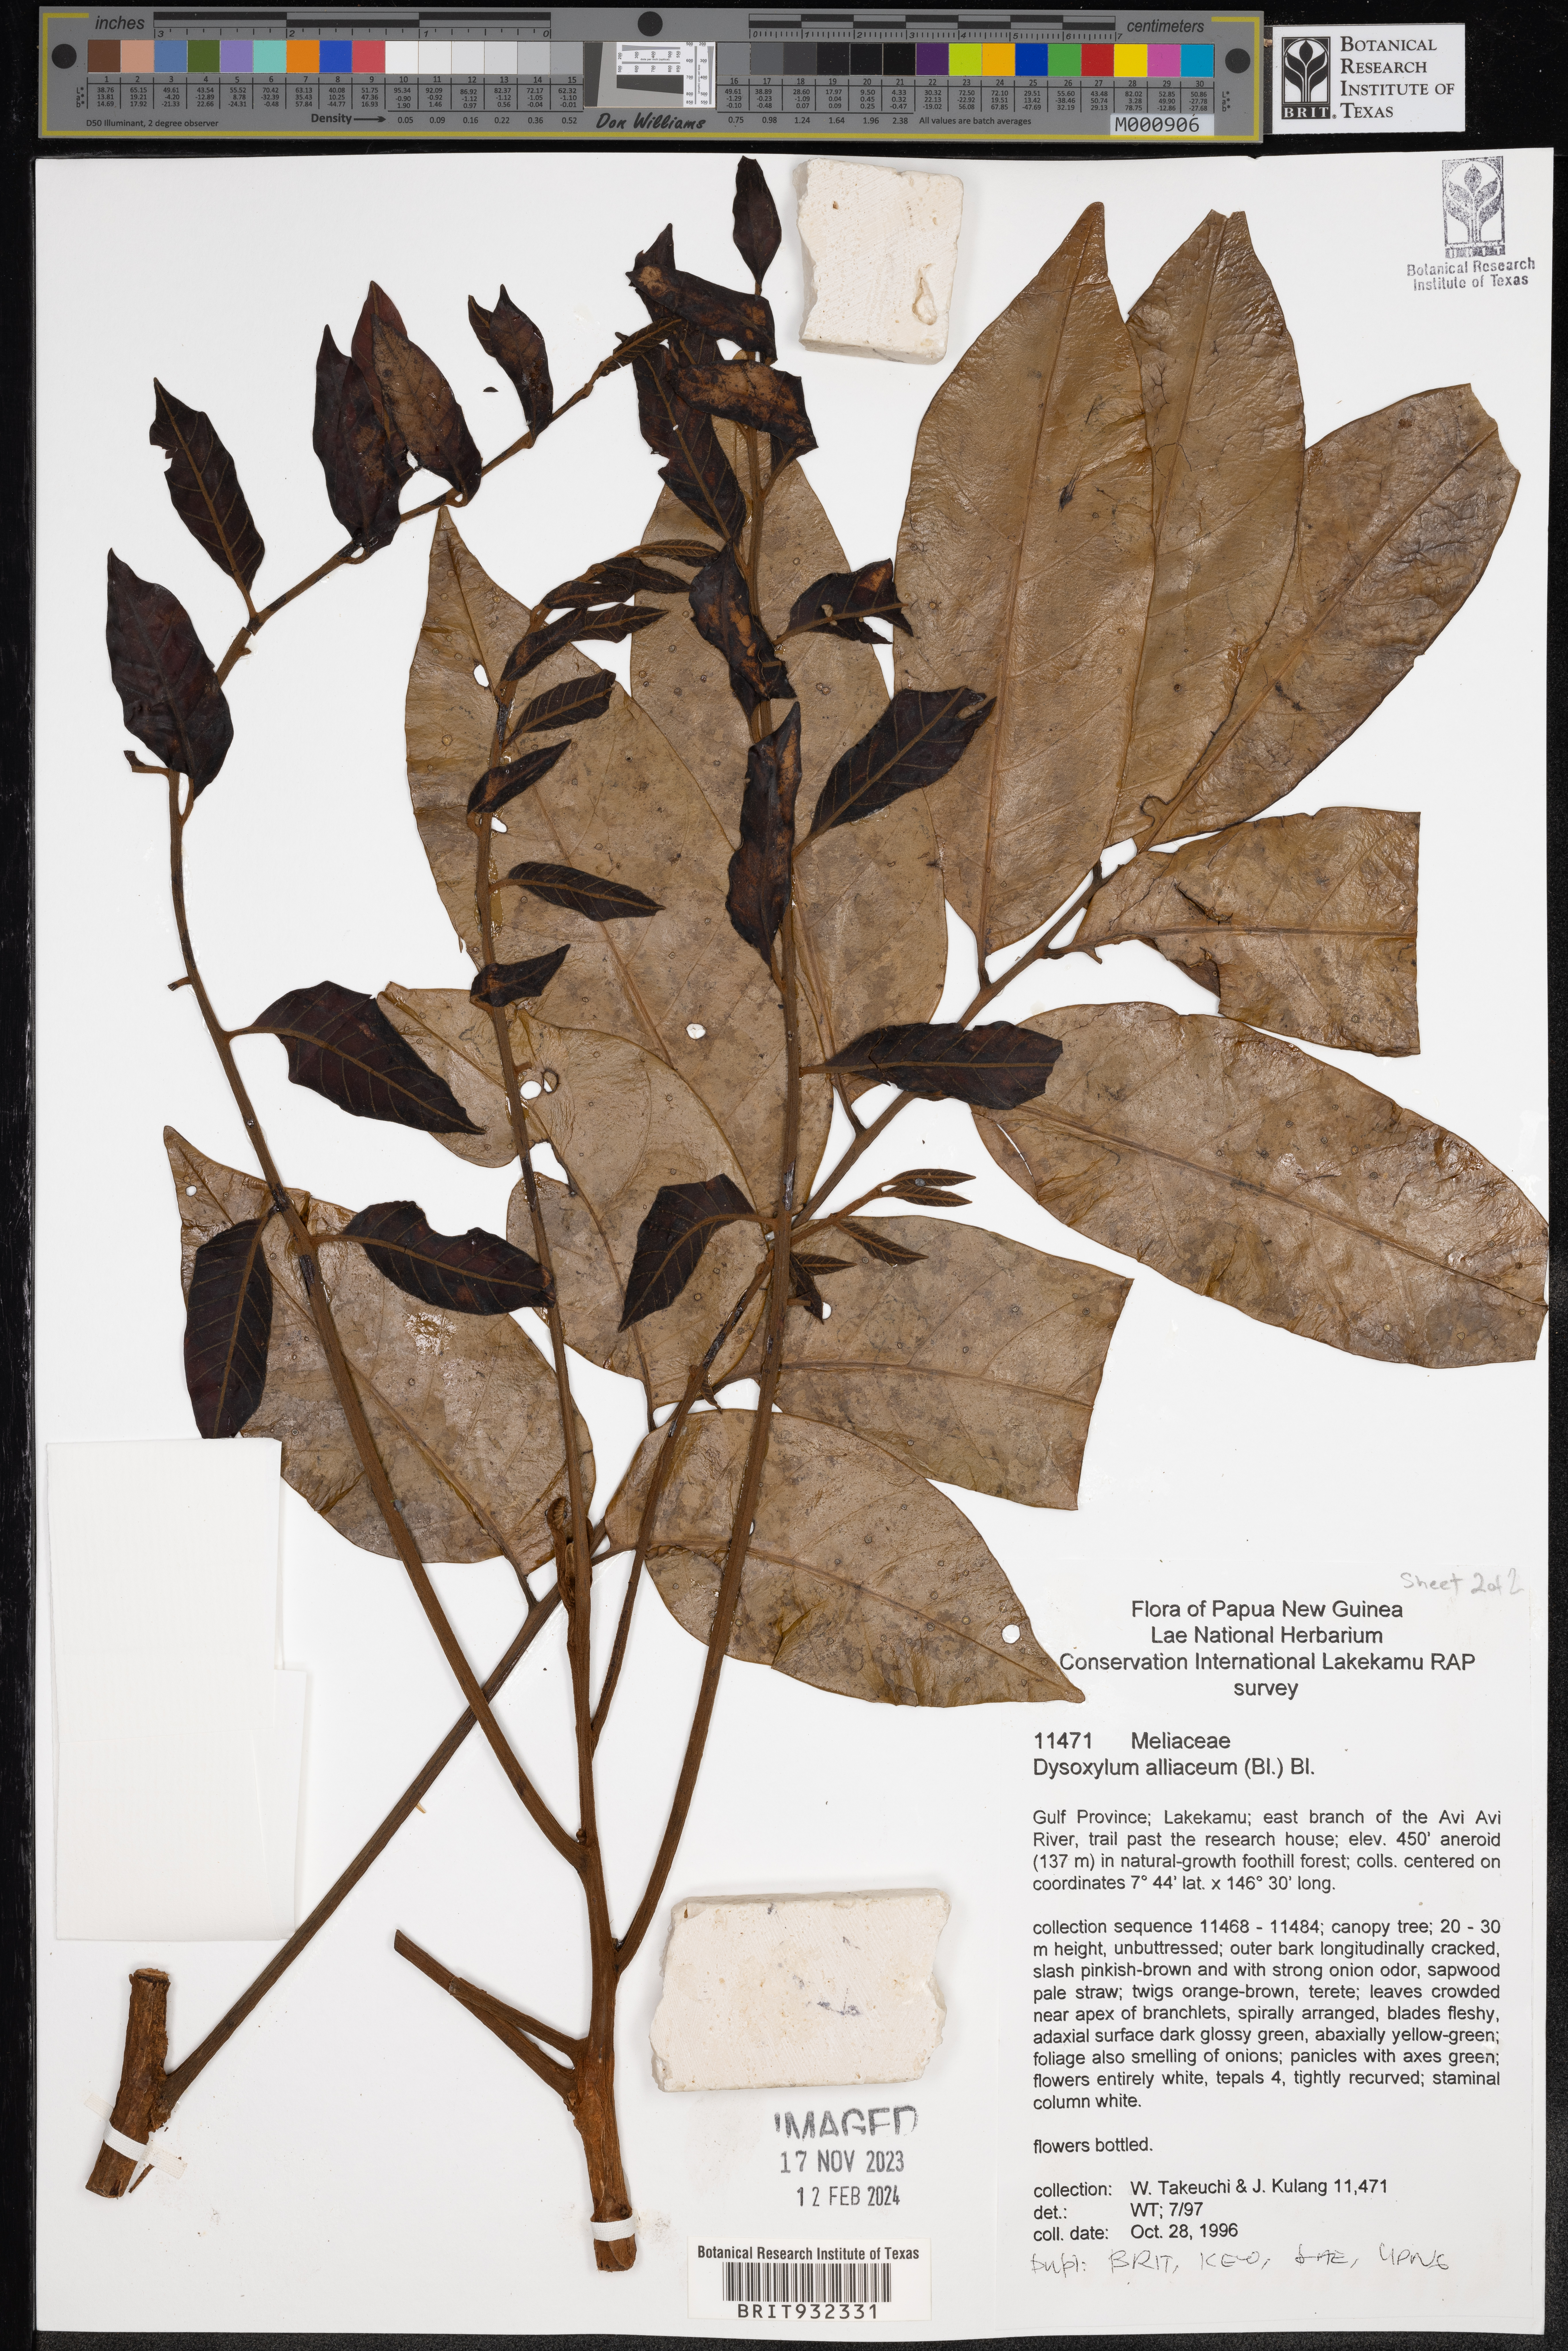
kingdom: Plantae
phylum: Tracheophyta
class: Magnoliopsida
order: Sapindales
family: Meliaceae
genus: Dysoxylum
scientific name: Dysoxylum
